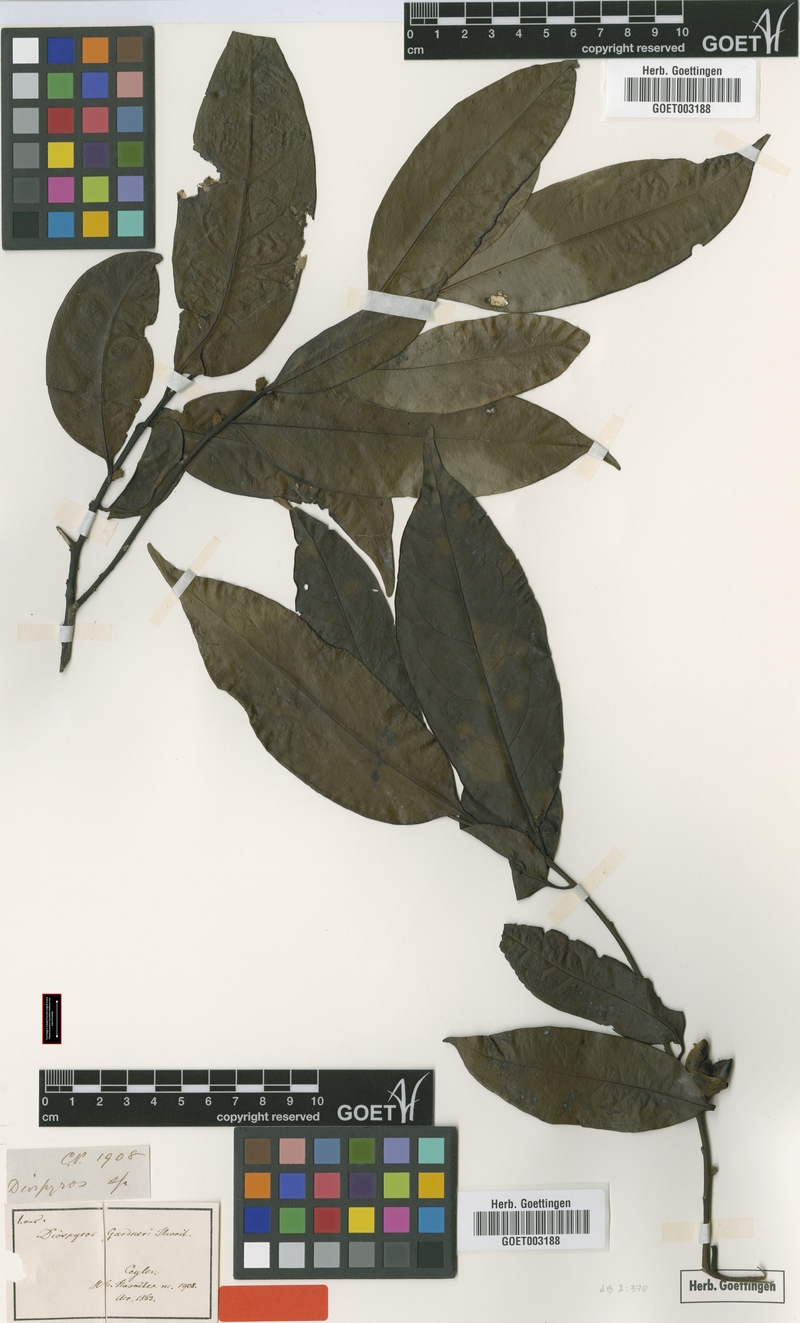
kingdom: Plantae
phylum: Tracheophyta
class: Magnoliopsida
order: Ericales
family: Ebenaceae
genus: Diospyros
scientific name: Diospyros walkeri
